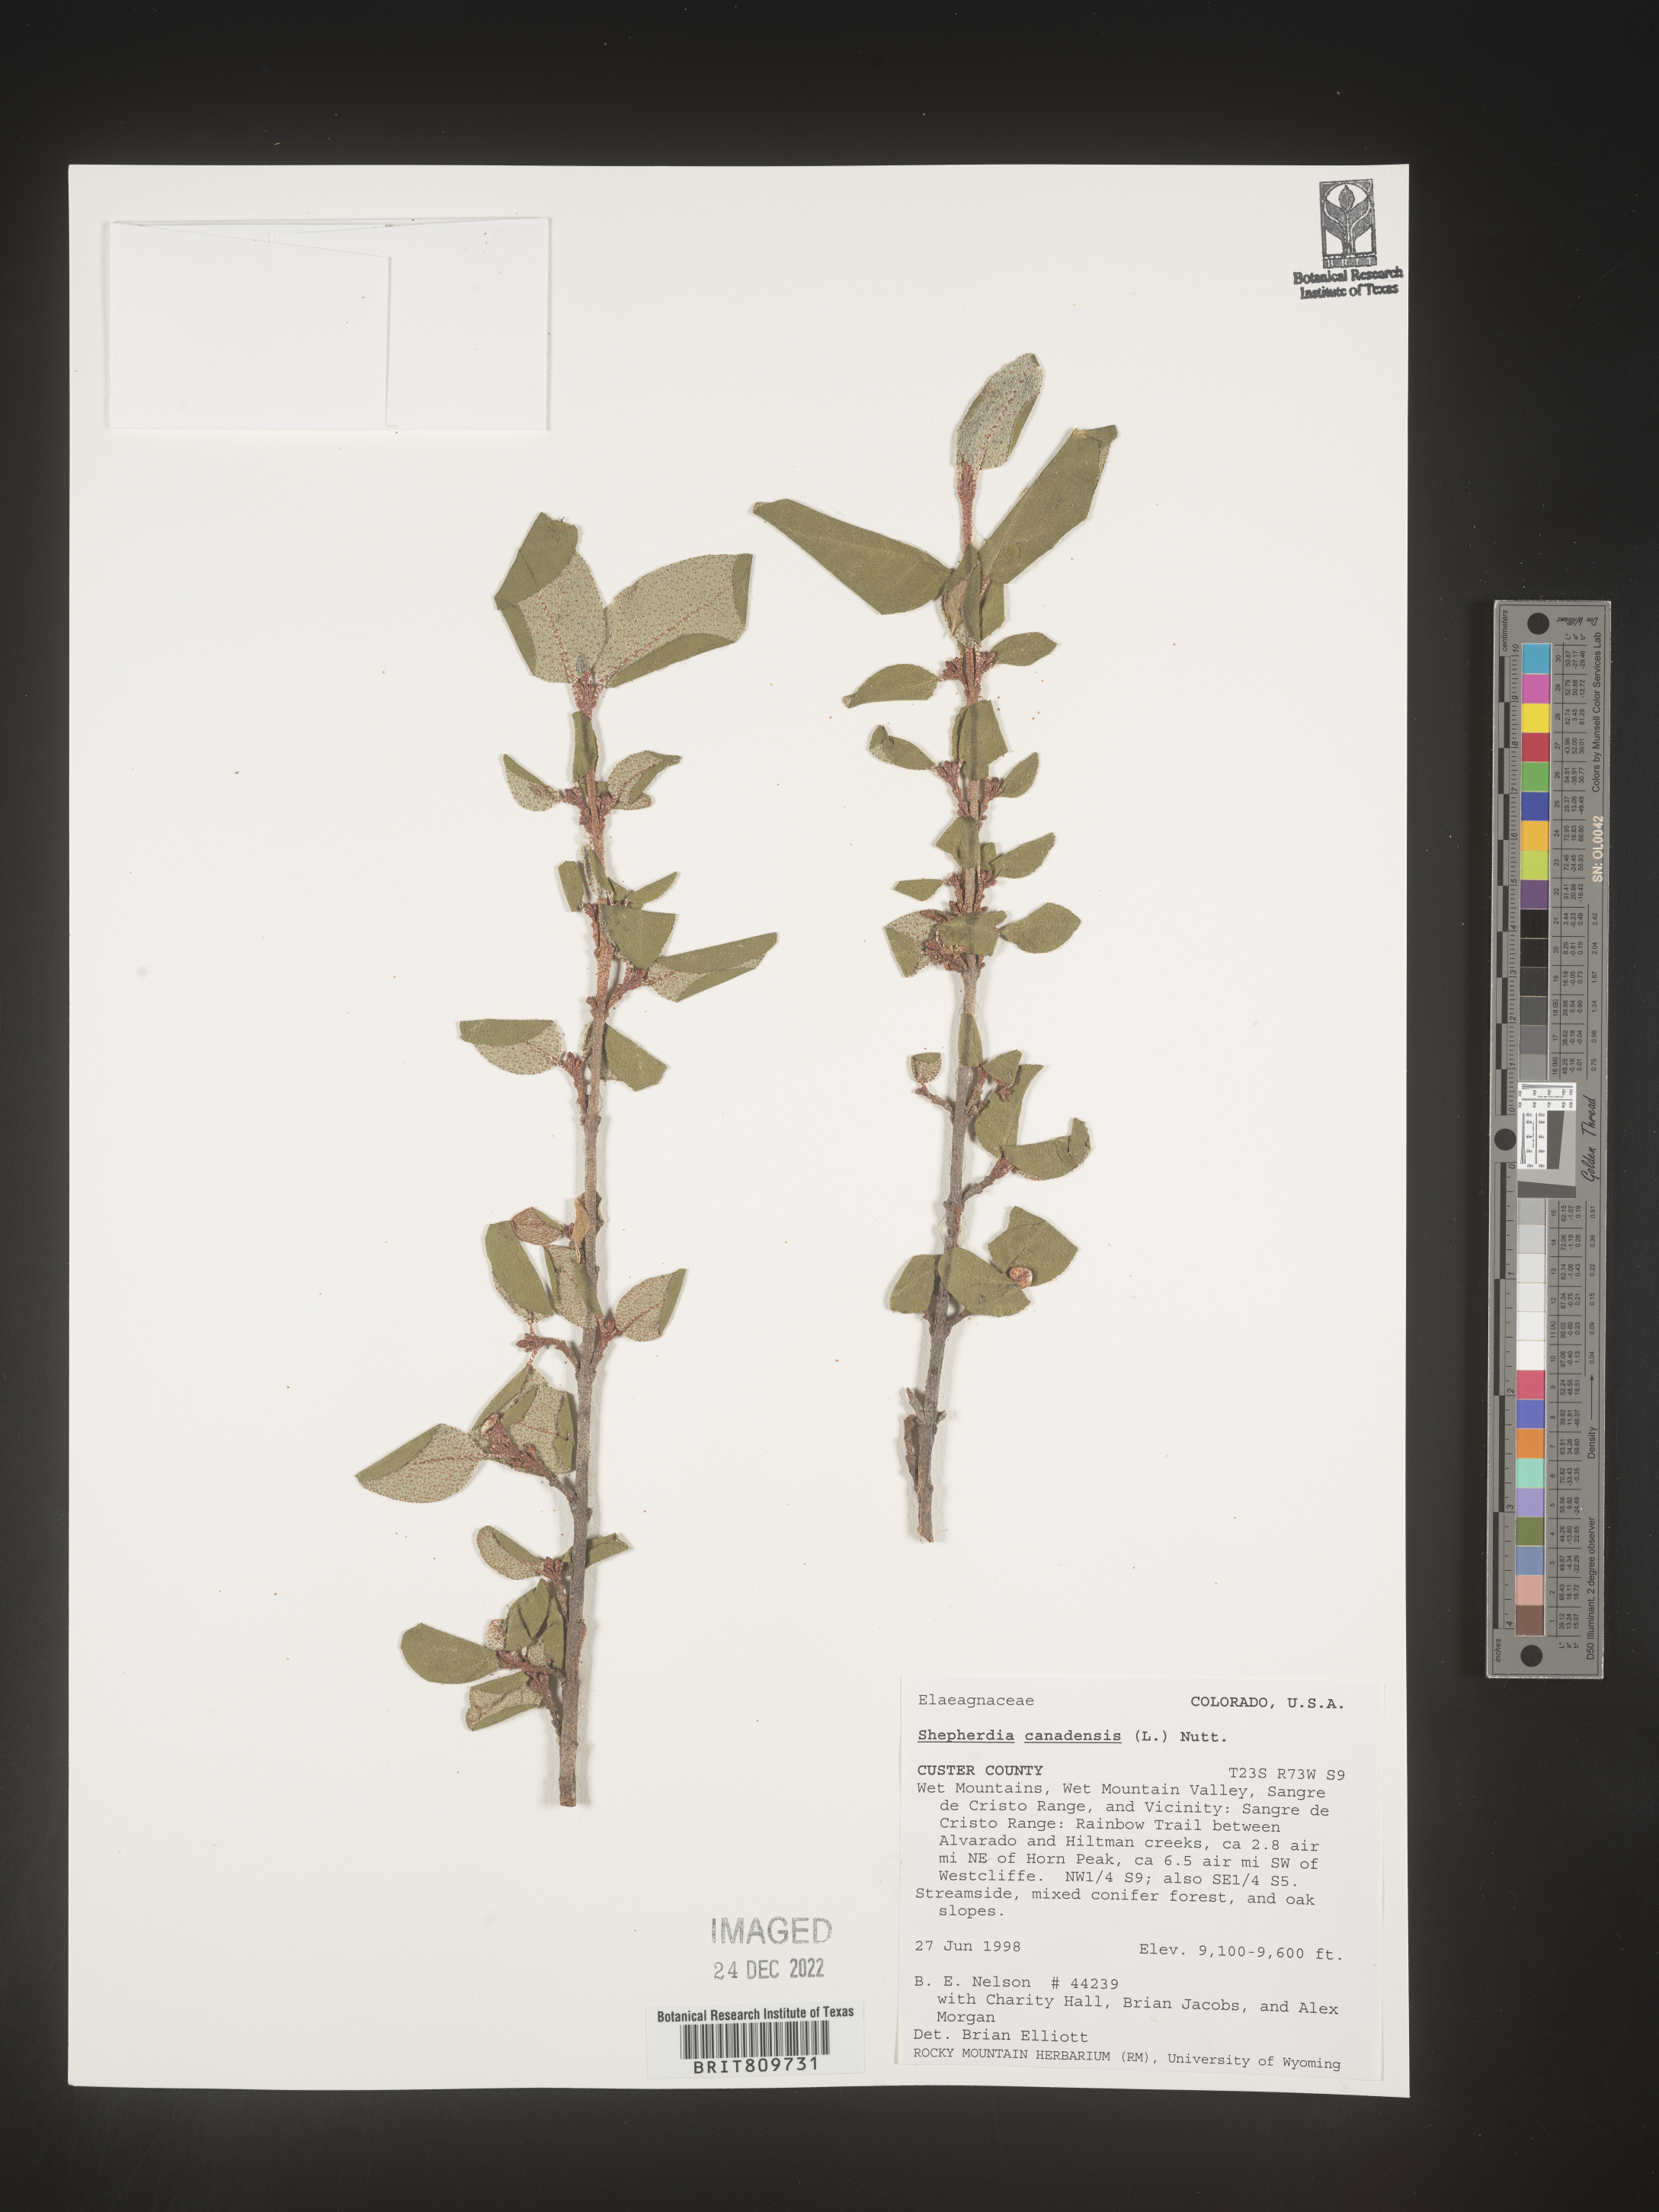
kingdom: Plantae
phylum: Tracheophyta
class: Magnoliopsida
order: Rosales
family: Elaeagnaceae
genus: Shepherdia
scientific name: Shepherdia canadensis
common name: Soapberry
